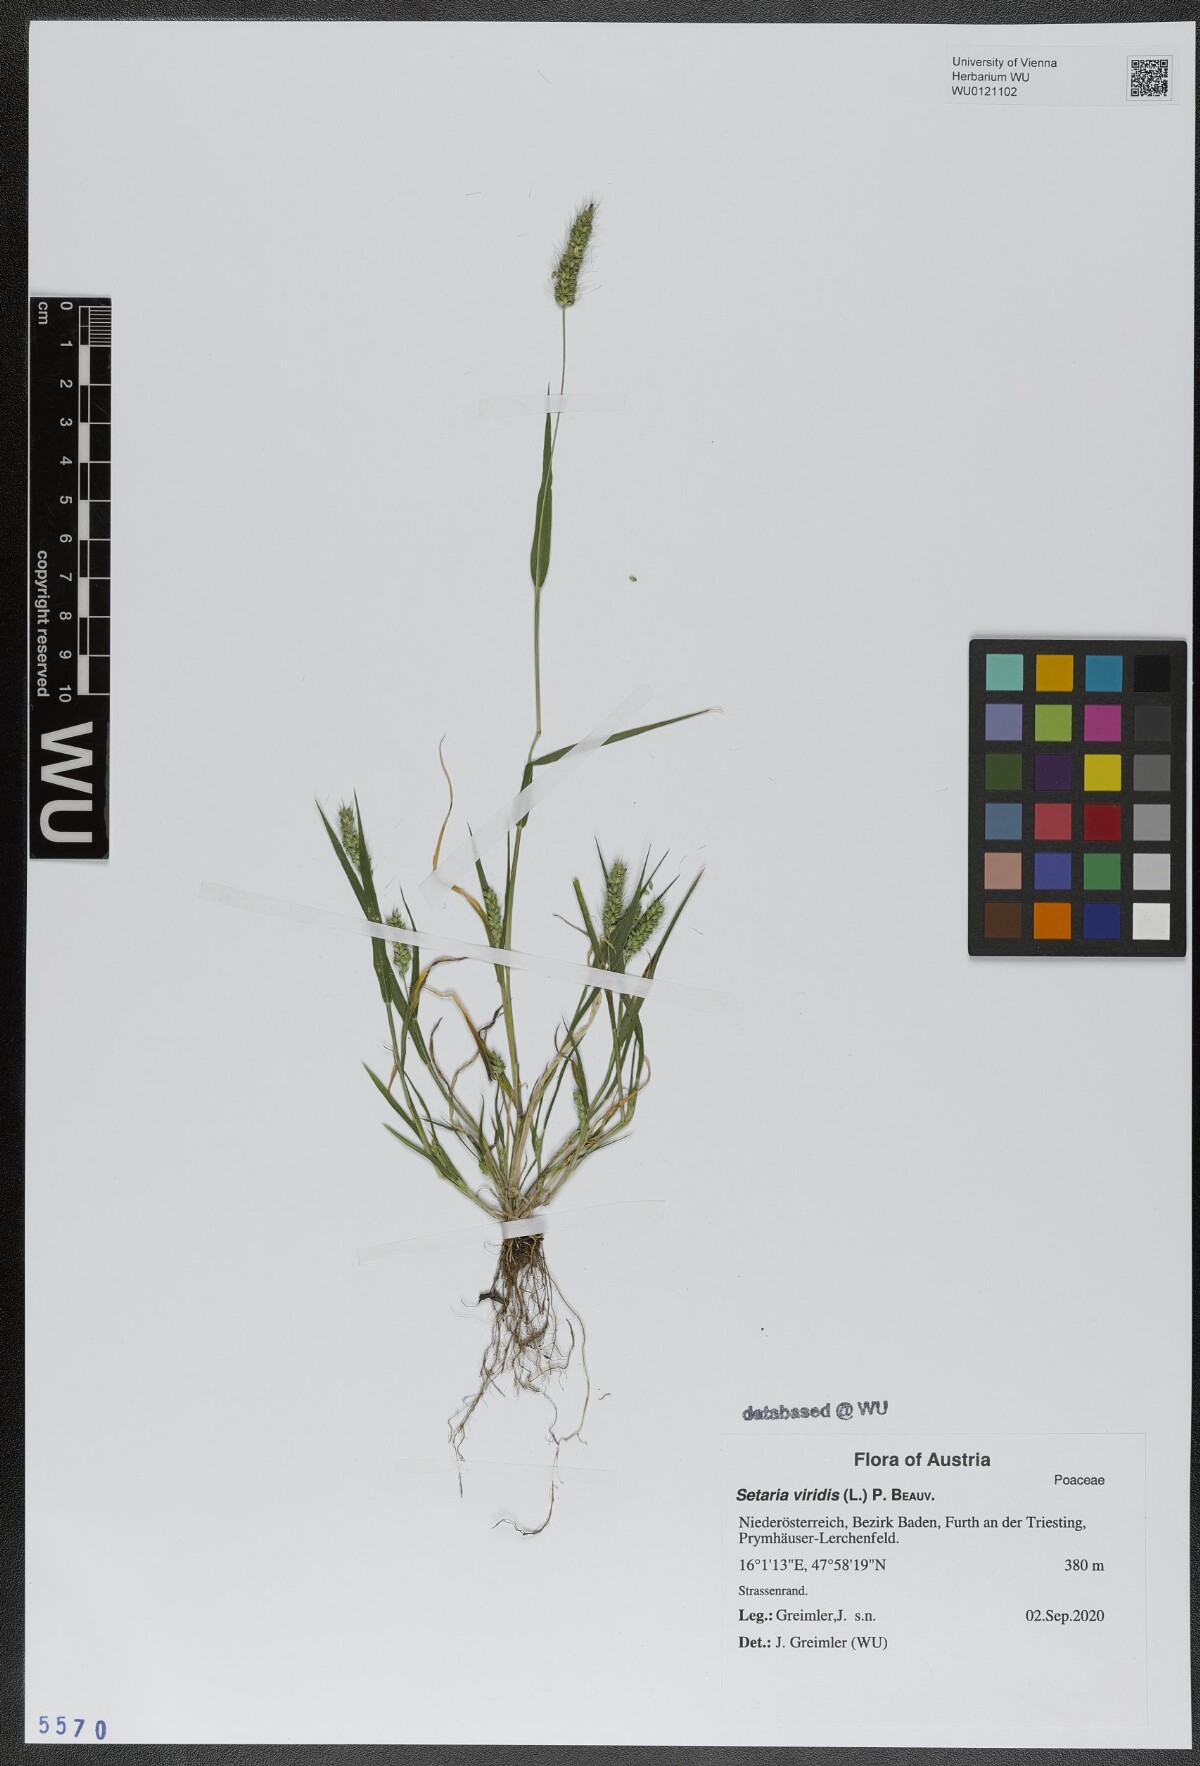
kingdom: Plantae
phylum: Tracheophyta
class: Liliopsida
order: Poales
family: Poaceae
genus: Setaria
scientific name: Setaria viridis
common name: Green bristlegrass
